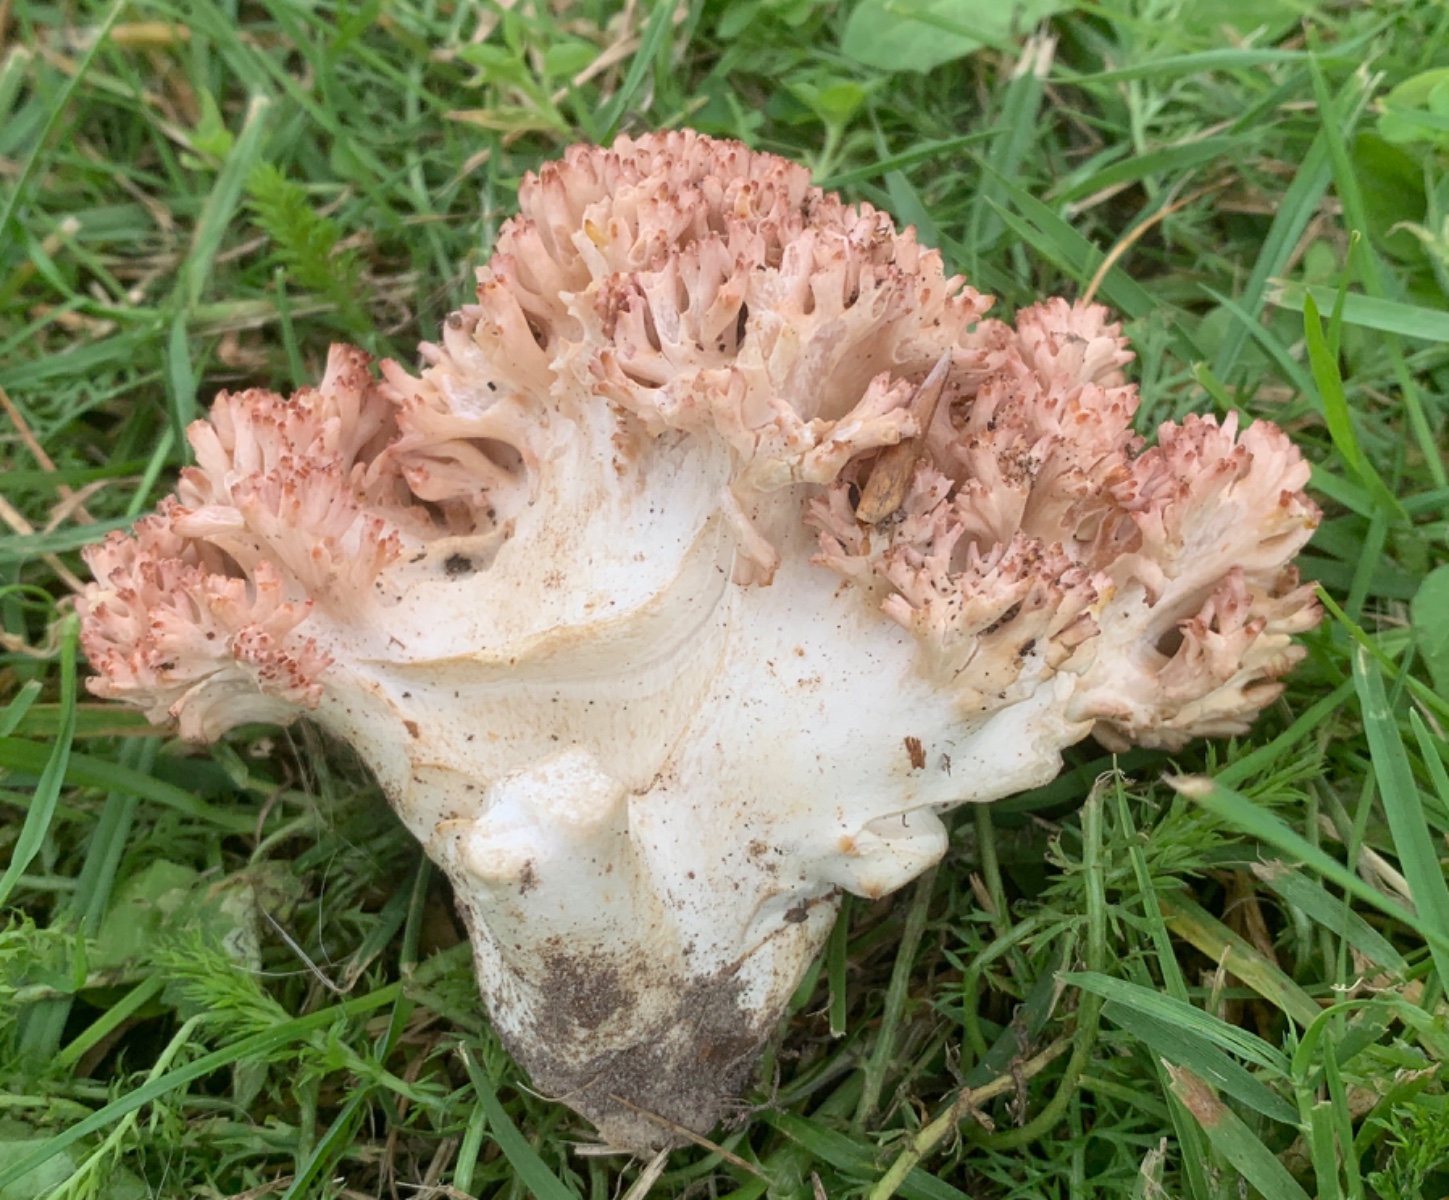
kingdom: Fungi
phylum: Basidiomycota
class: Agaricomycetes
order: Gomphales
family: Gomphaceae
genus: Ramaria
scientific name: Ramaria botrytis
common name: drue-koralsvamp
